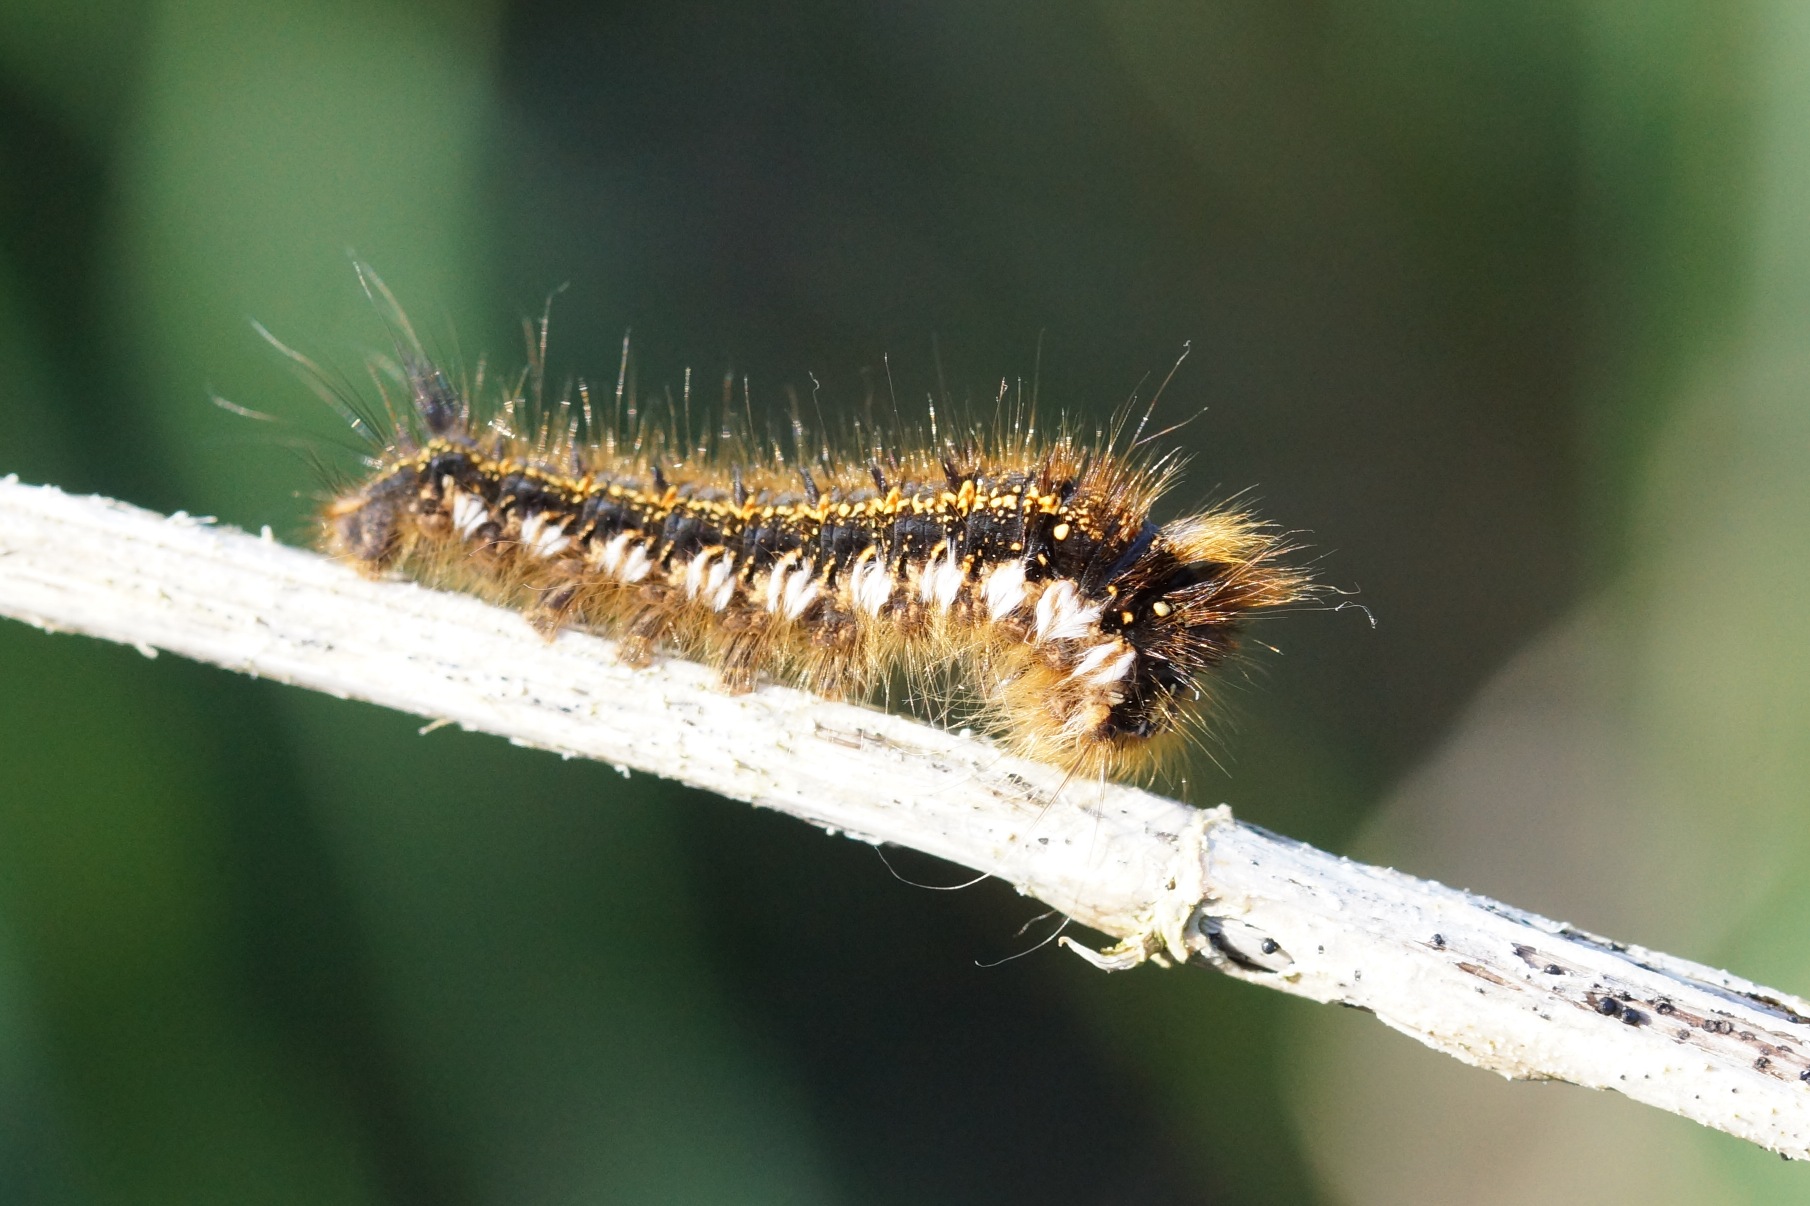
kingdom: Animalia
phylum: Arthropoda
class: Insecta
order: Lepidoptera
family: Lasiocampidae
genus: Euthrix
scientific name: Euthrix potatoria
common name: Græsspinder
